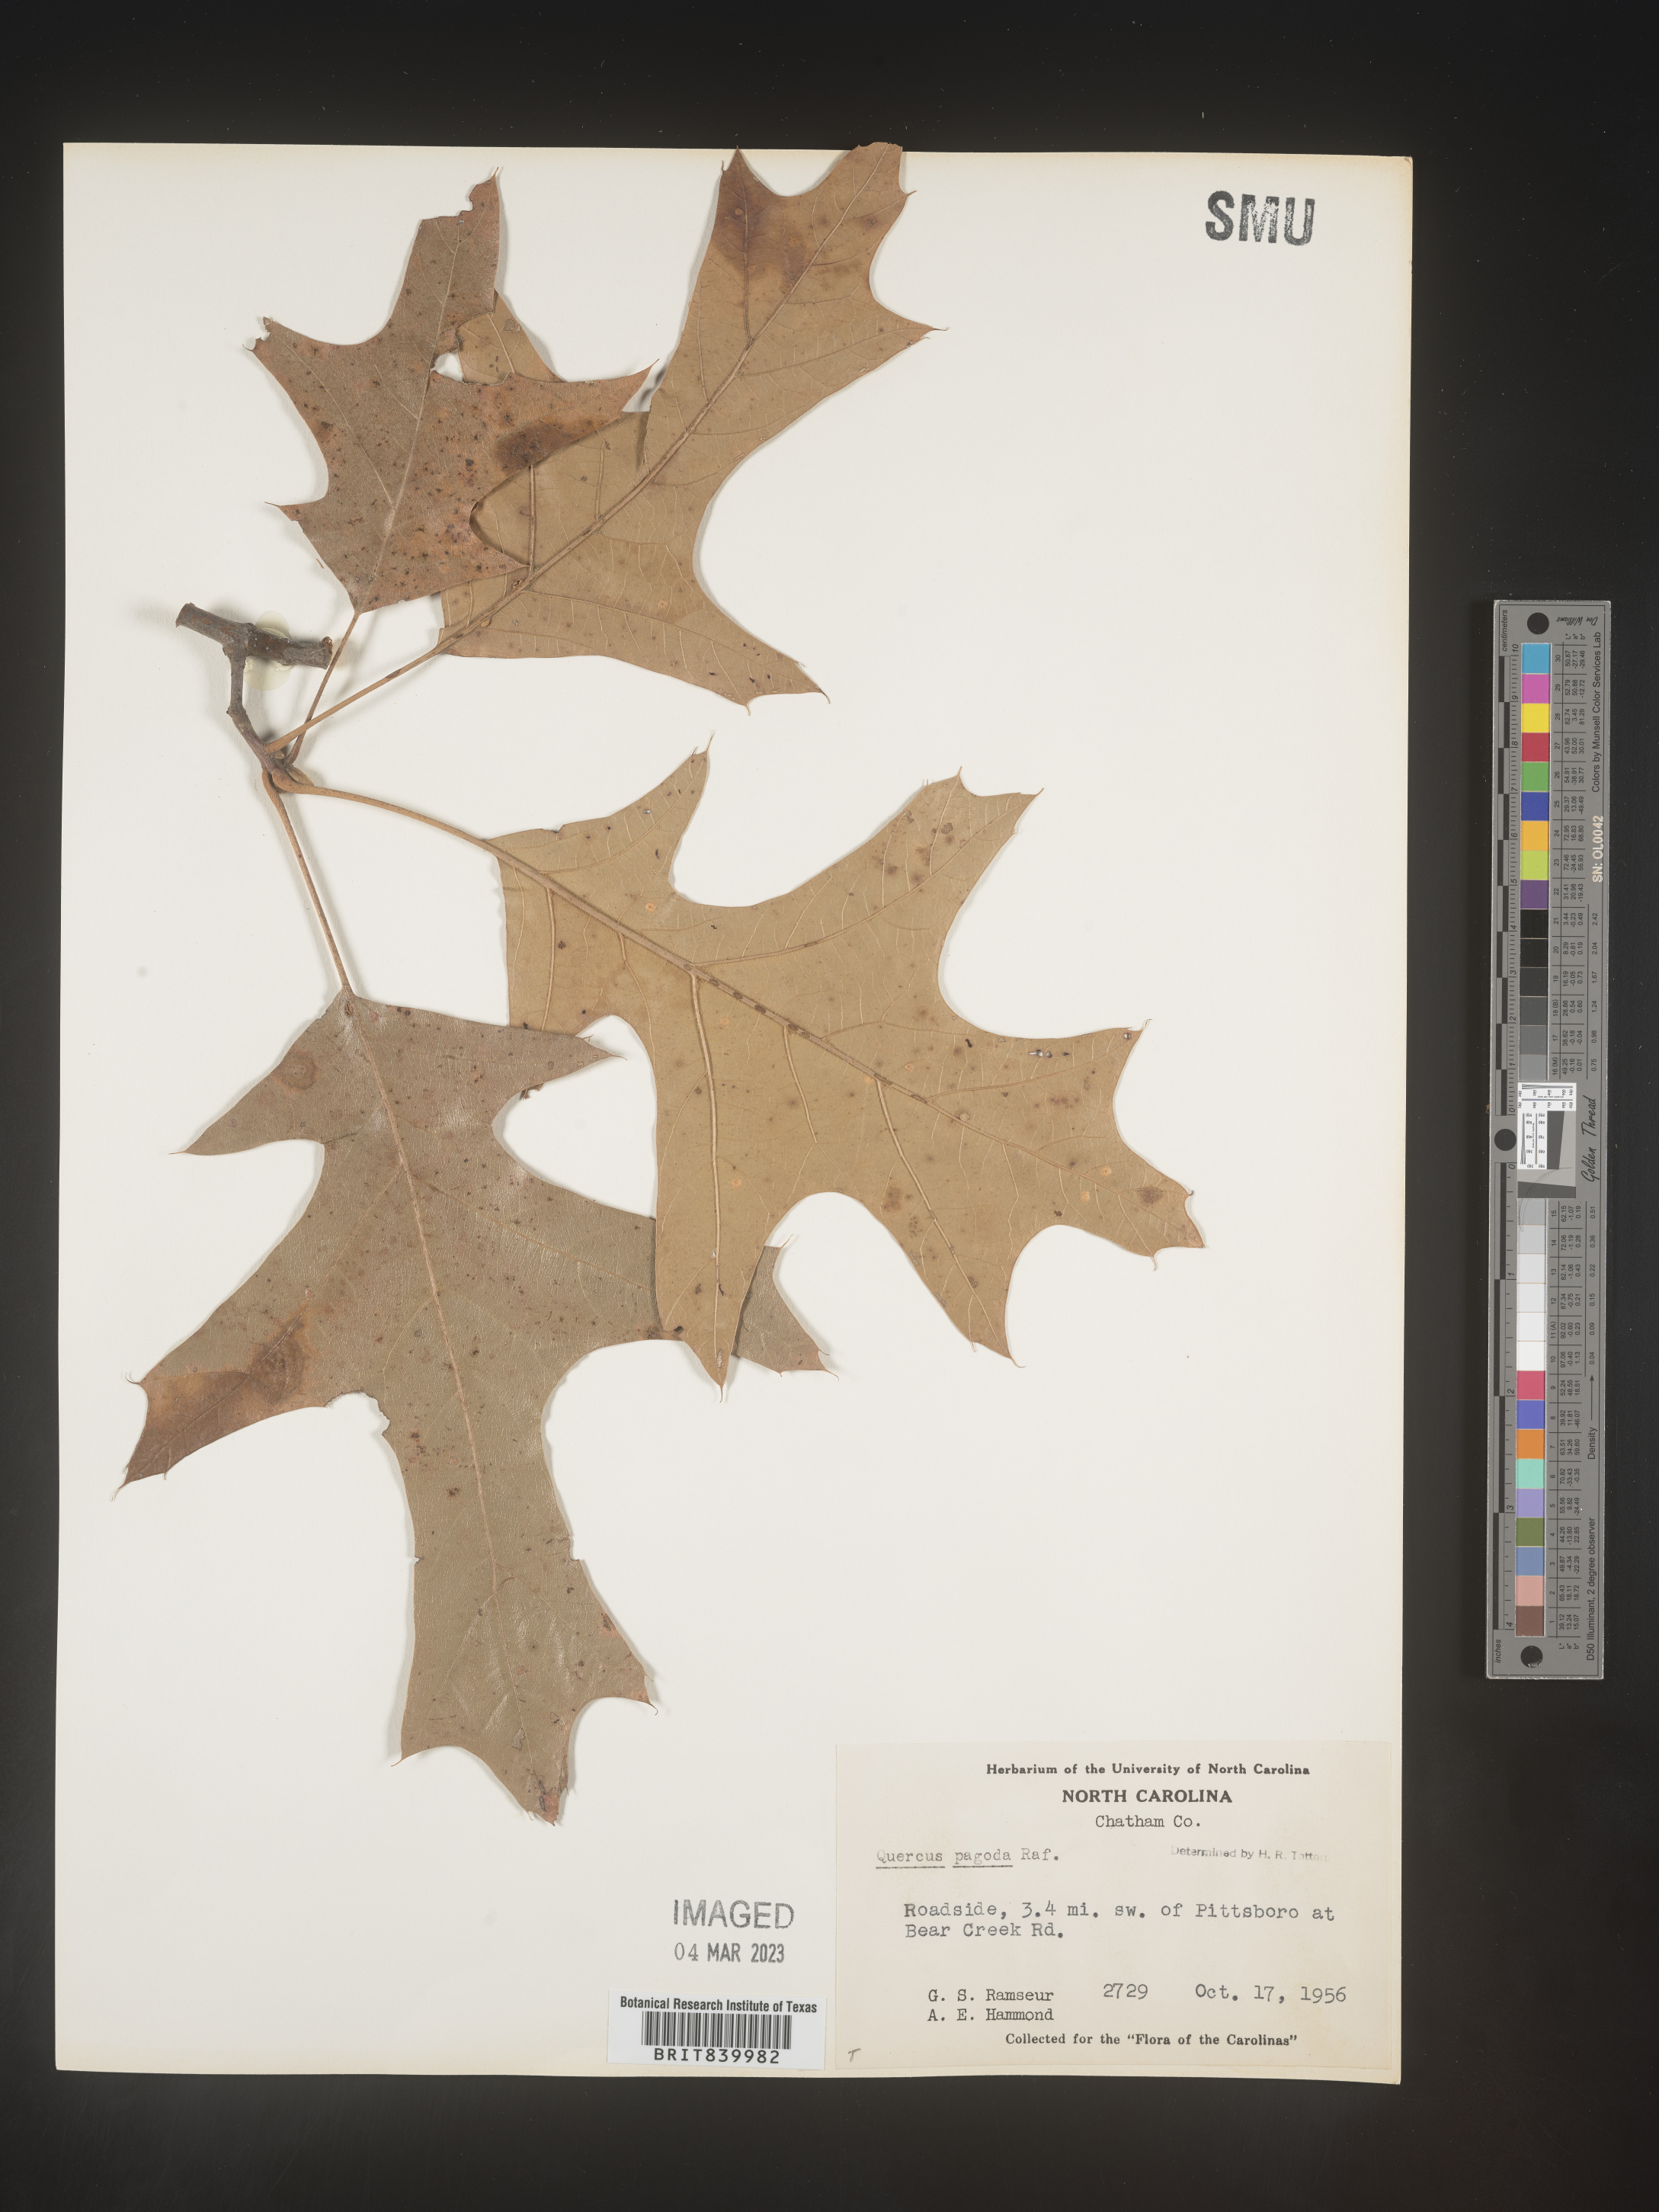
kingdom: Plantae
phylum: Tracheophyta
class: Magnoliopsida
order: Fagales
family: Fagaceae
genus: Quercus
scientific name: Quercus pagoda
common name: Cherrybark oak
